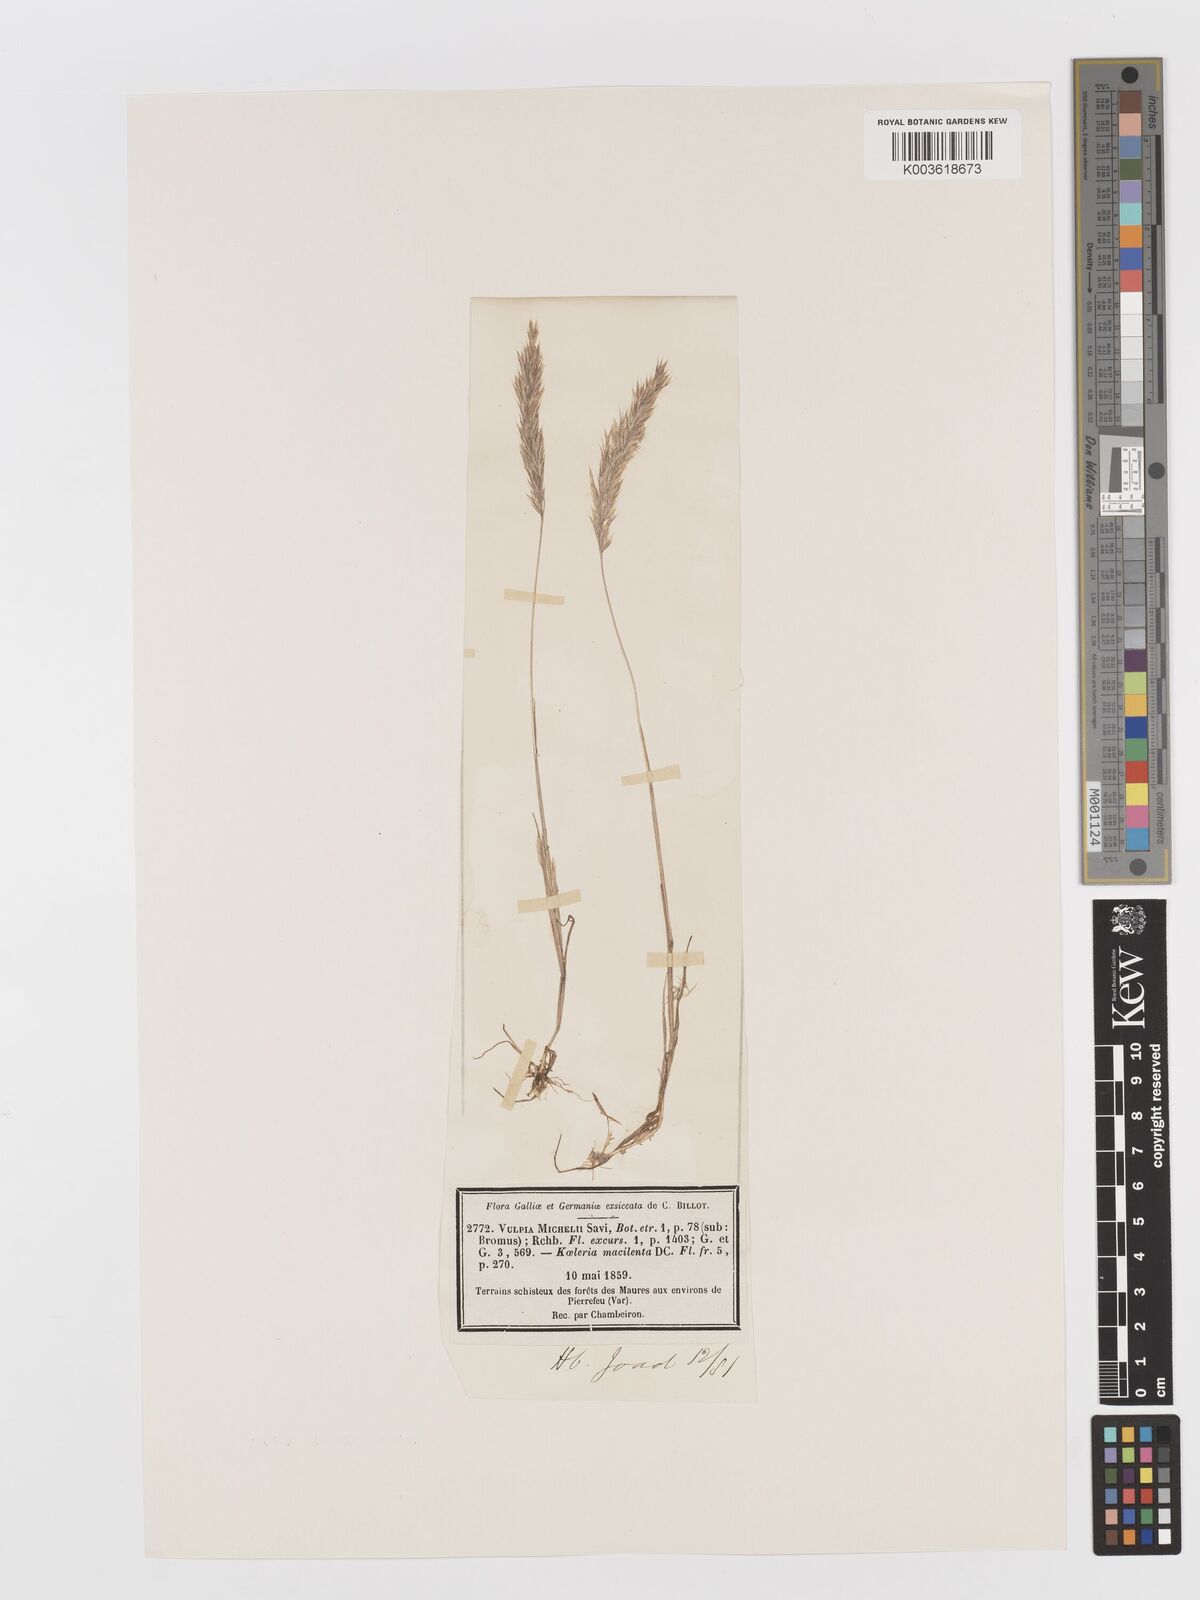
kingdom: Plantae
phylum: Tracheophyta
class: Liliopsida
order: Poales
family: Poaceae
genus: Avellinia
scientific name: Avellinia festucoides
